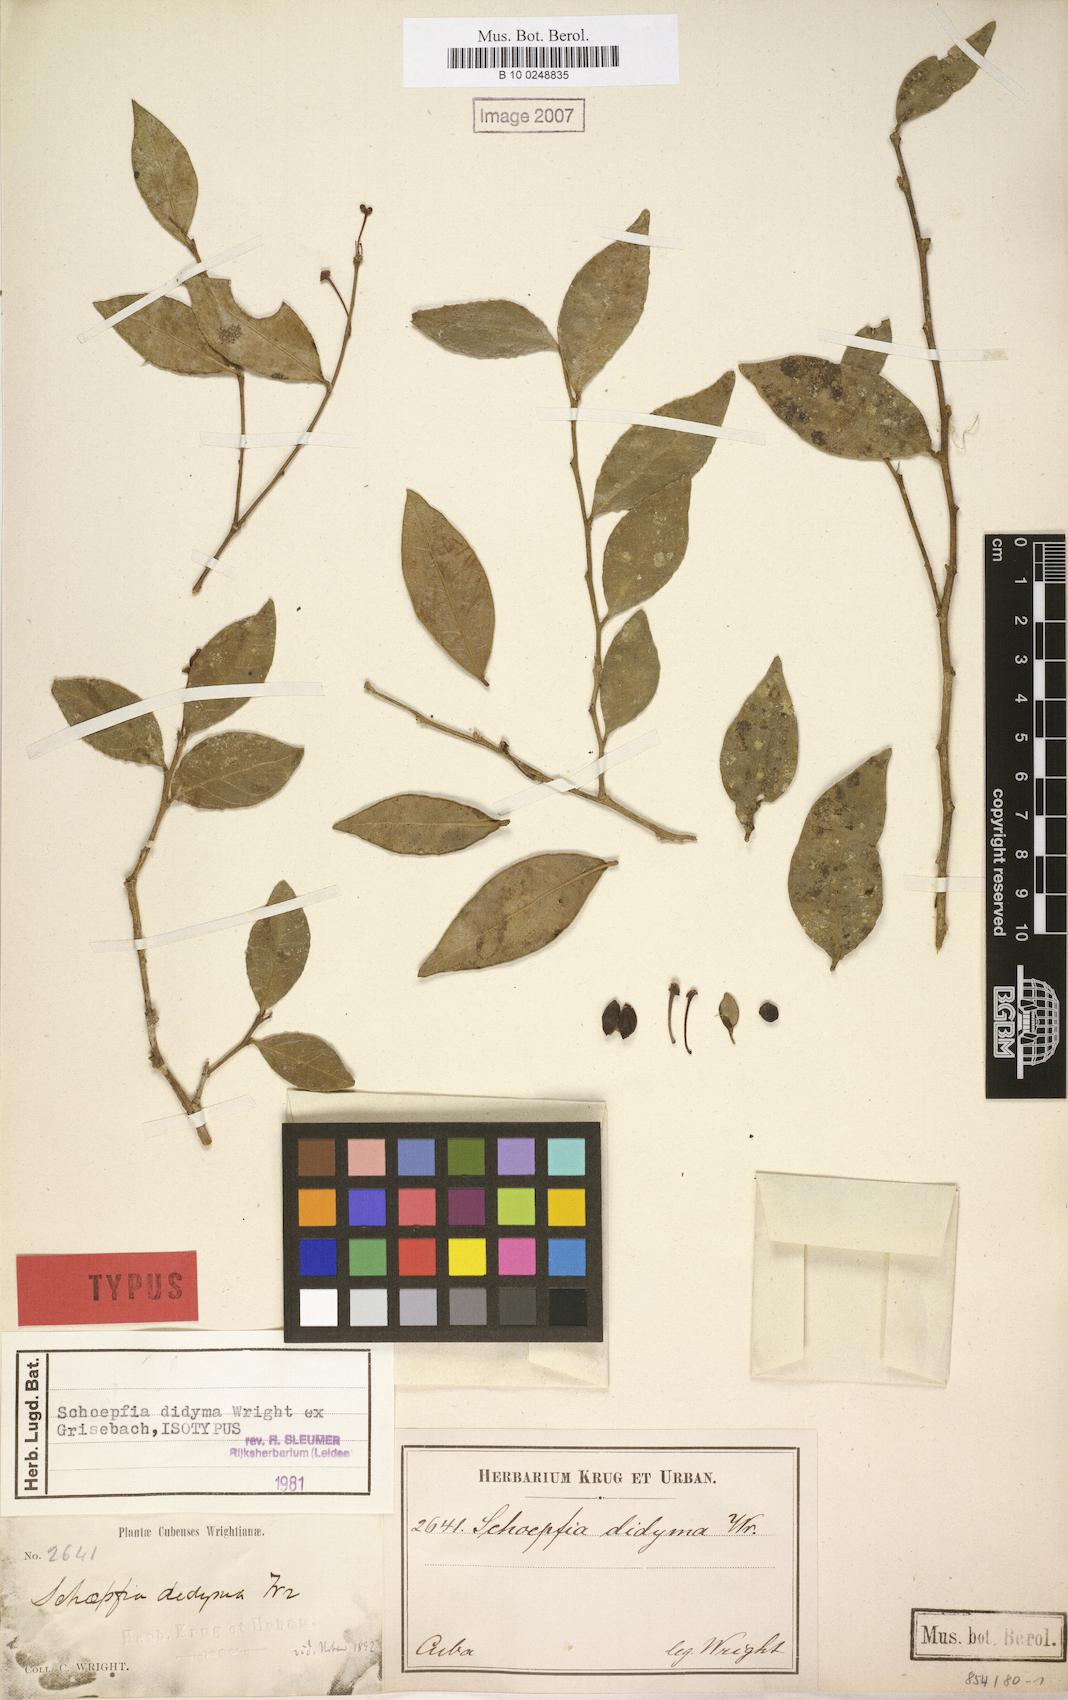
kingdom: Plantae
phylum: Tracheophyta
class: Magnoliopsida
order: Santalales
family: Schoepfiaceae
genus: Schoepfia
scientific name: Schoepfia didyma
